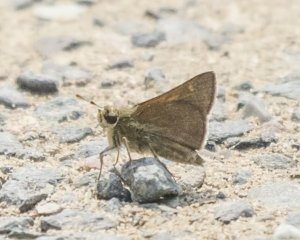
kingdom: Animalia
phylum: Arthropoda
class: Insecta
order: Lepidoptera
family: Hesperiidae
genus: Polites
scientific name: Polites themistocles
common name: Tawny-edged Skipper
